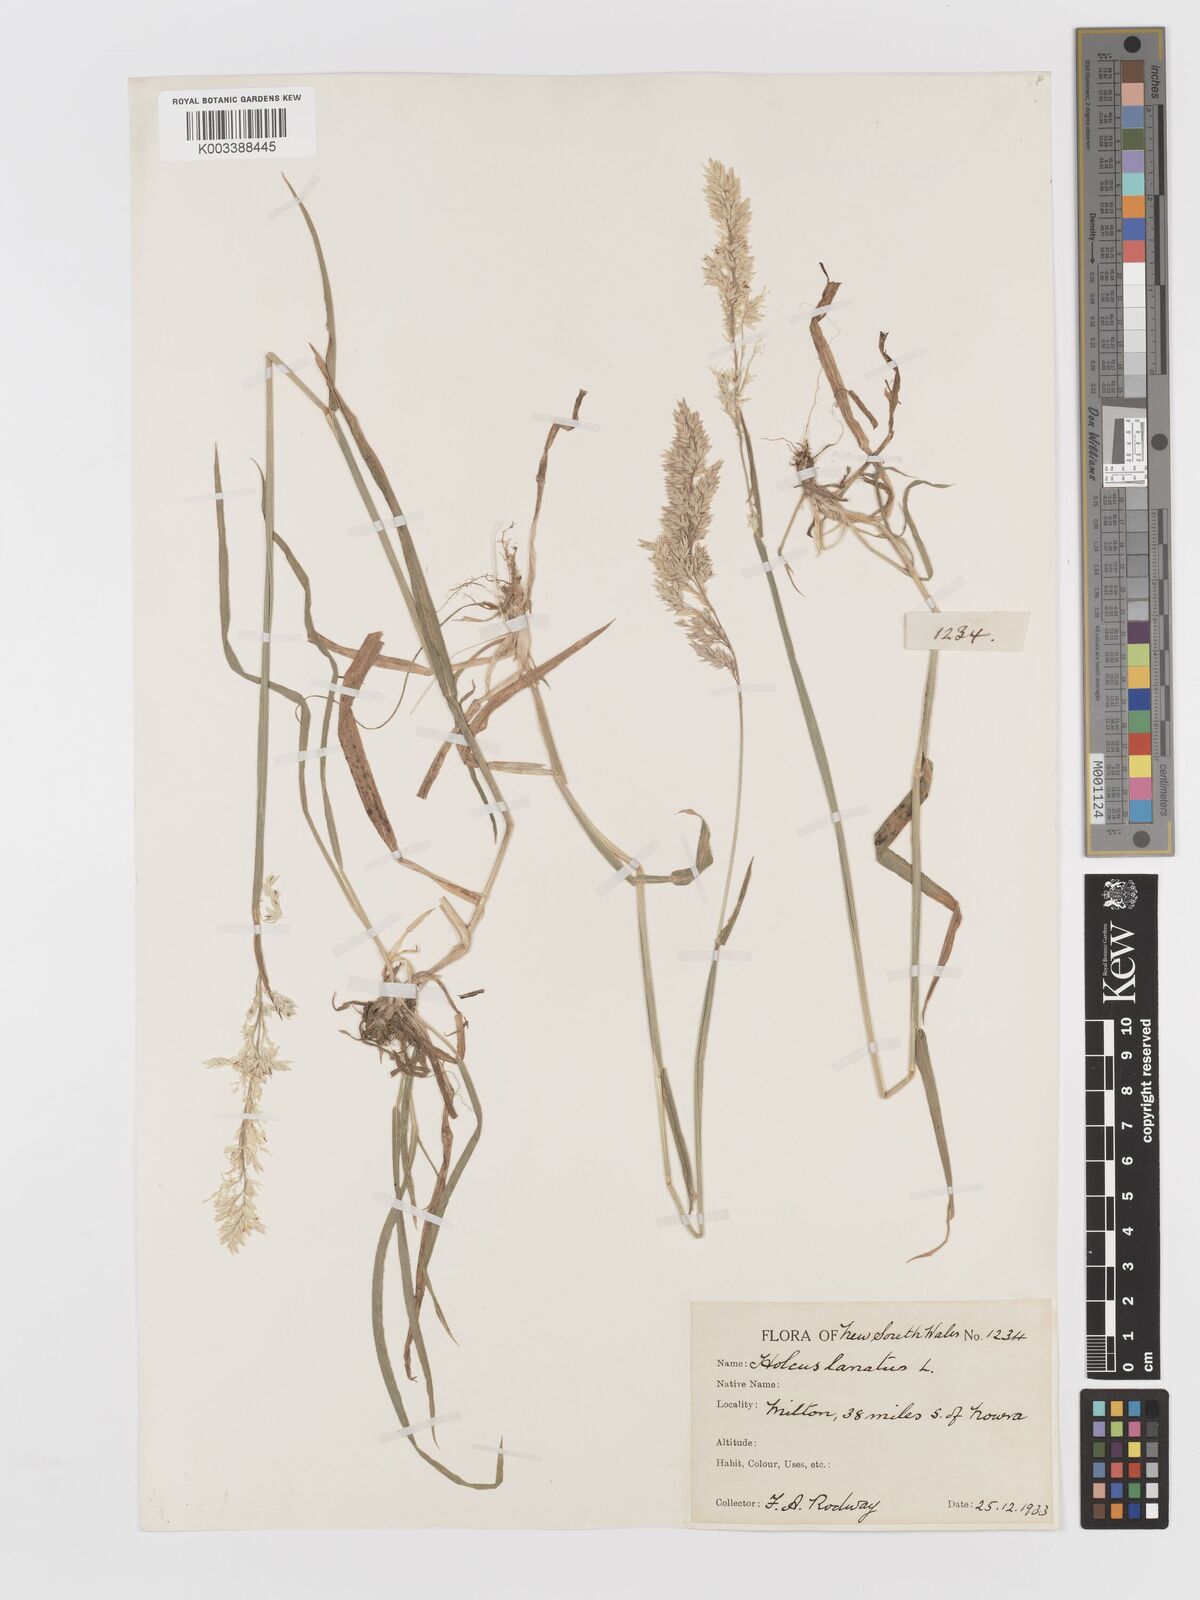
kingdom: Plantae
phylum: Tracheophyta
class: Liliopsida
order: Poales
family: Poaceae
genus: Holcus
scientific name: Holcus lanatus
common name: Yorkshire-fog
